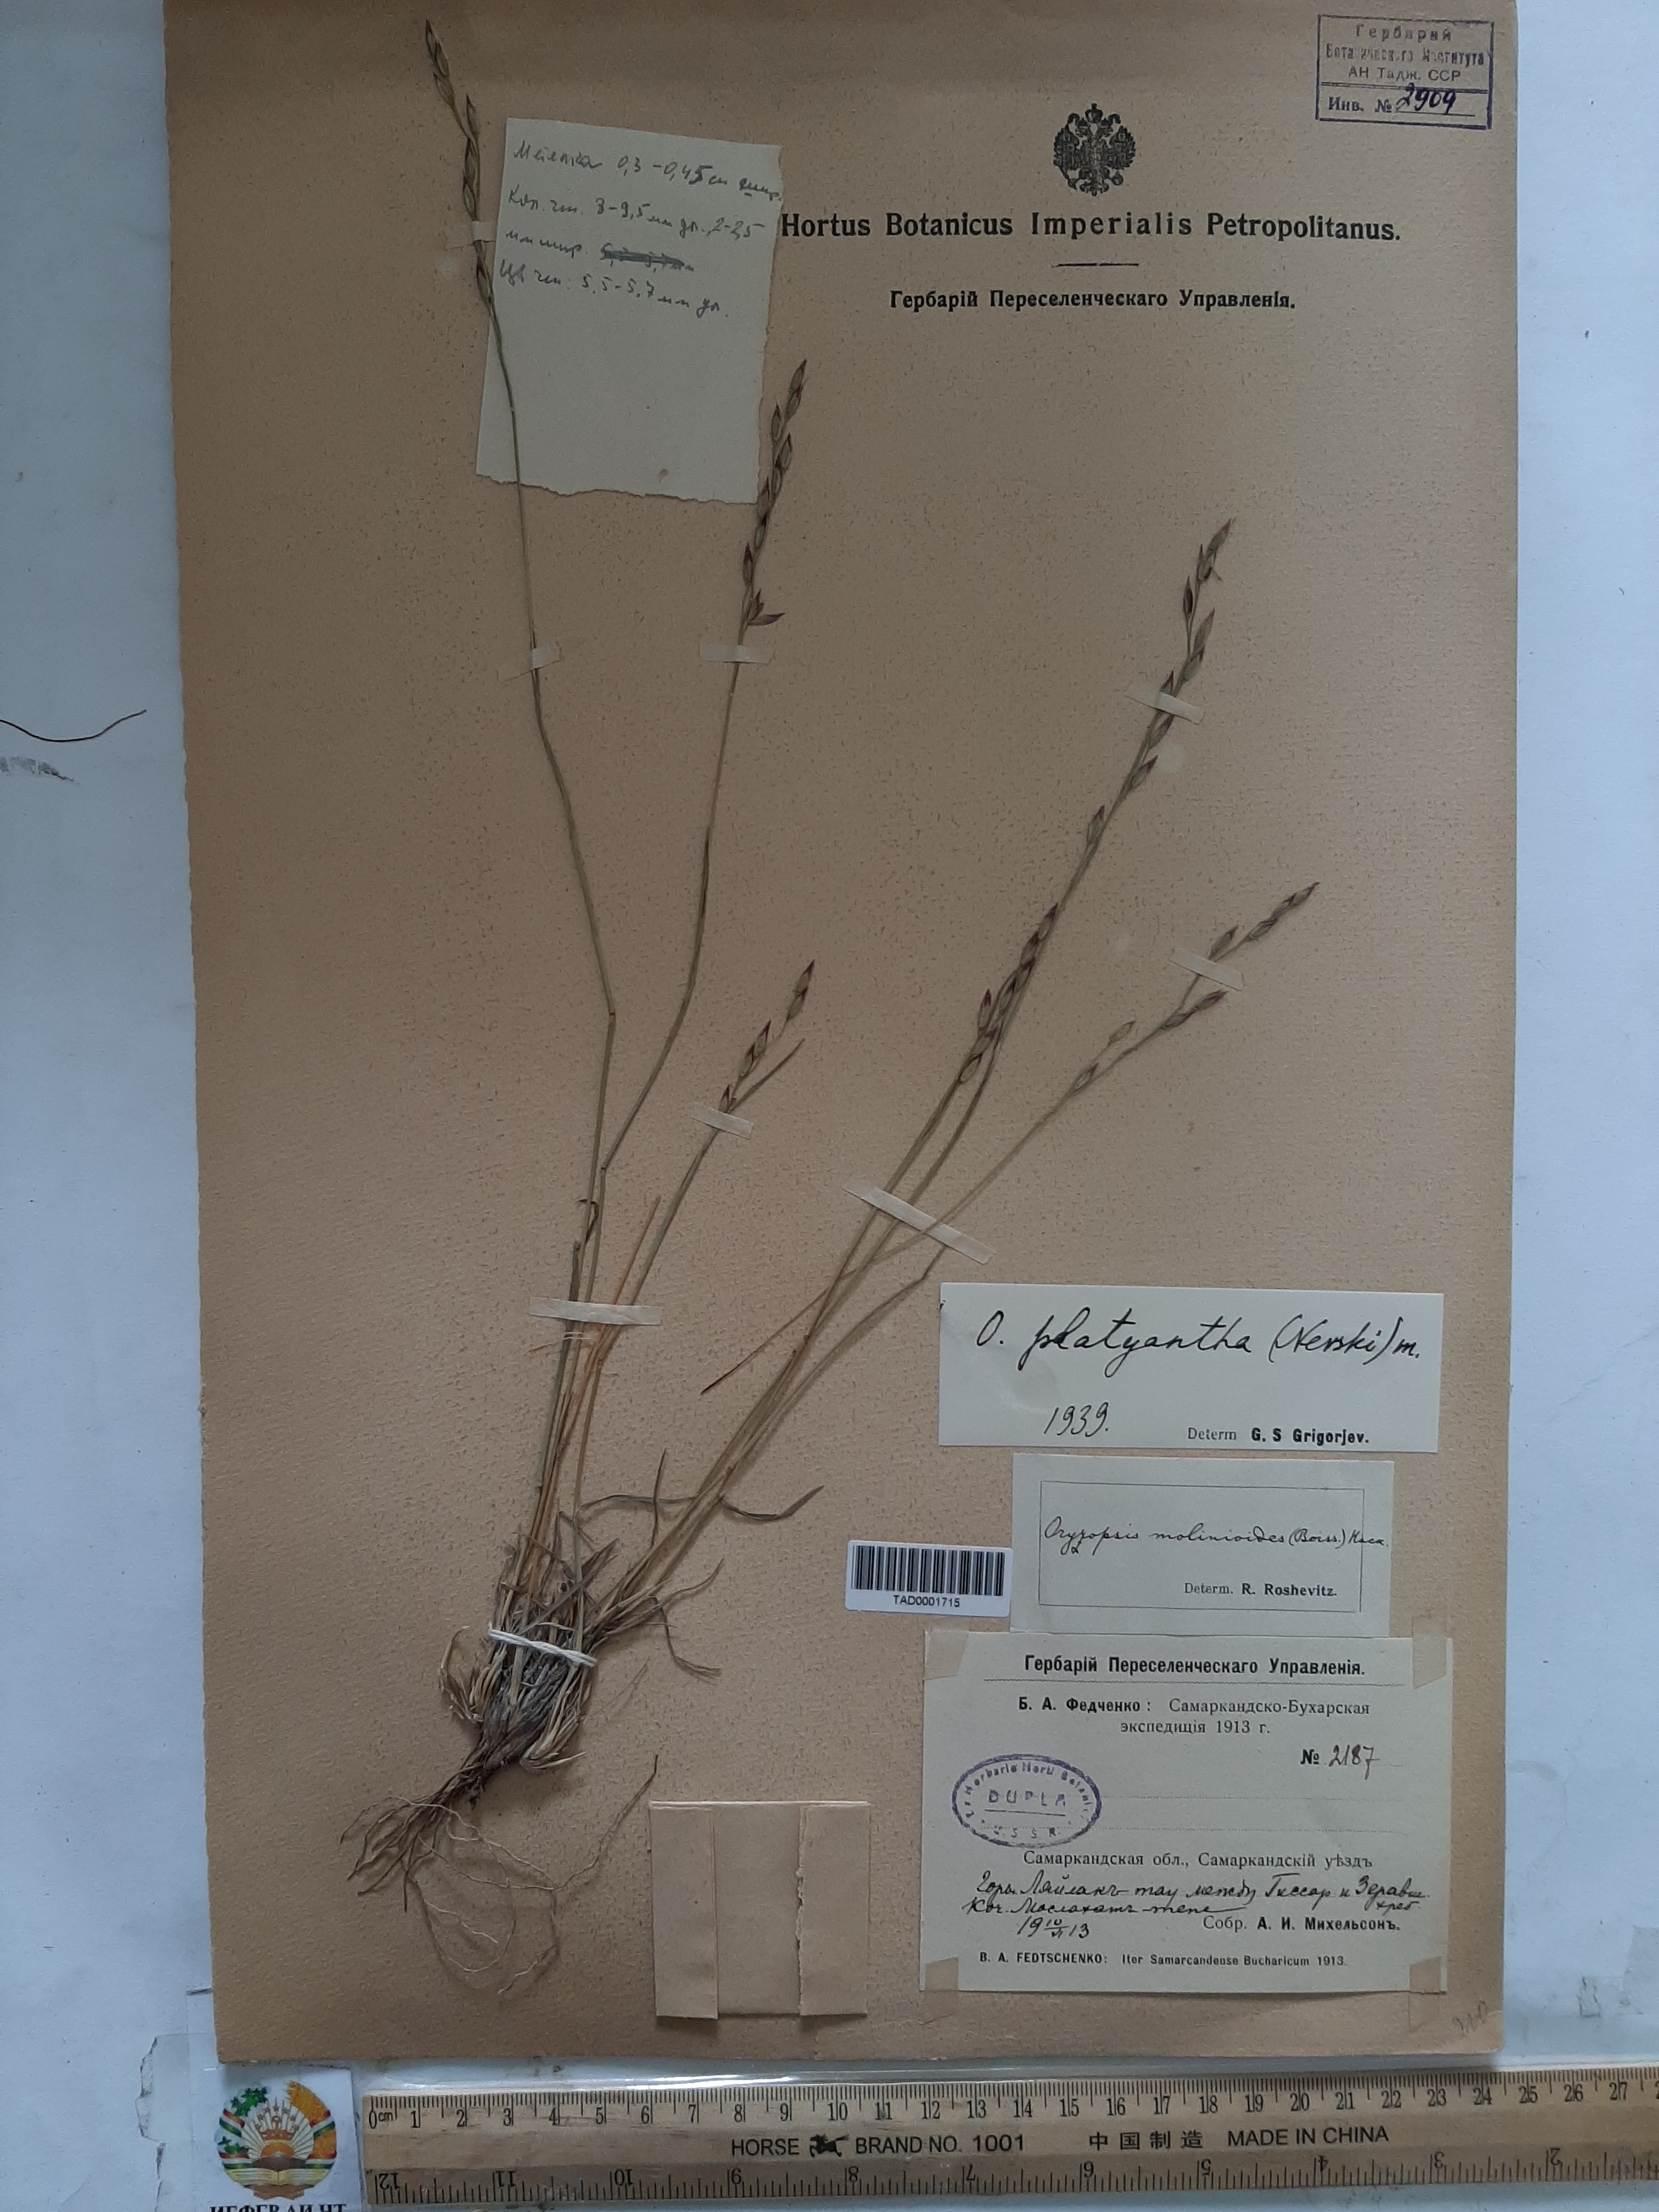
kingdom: Plantae
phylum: Tracheophyta
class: Liliopsida
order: Poales
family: Poaceae
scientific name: Poaceae
